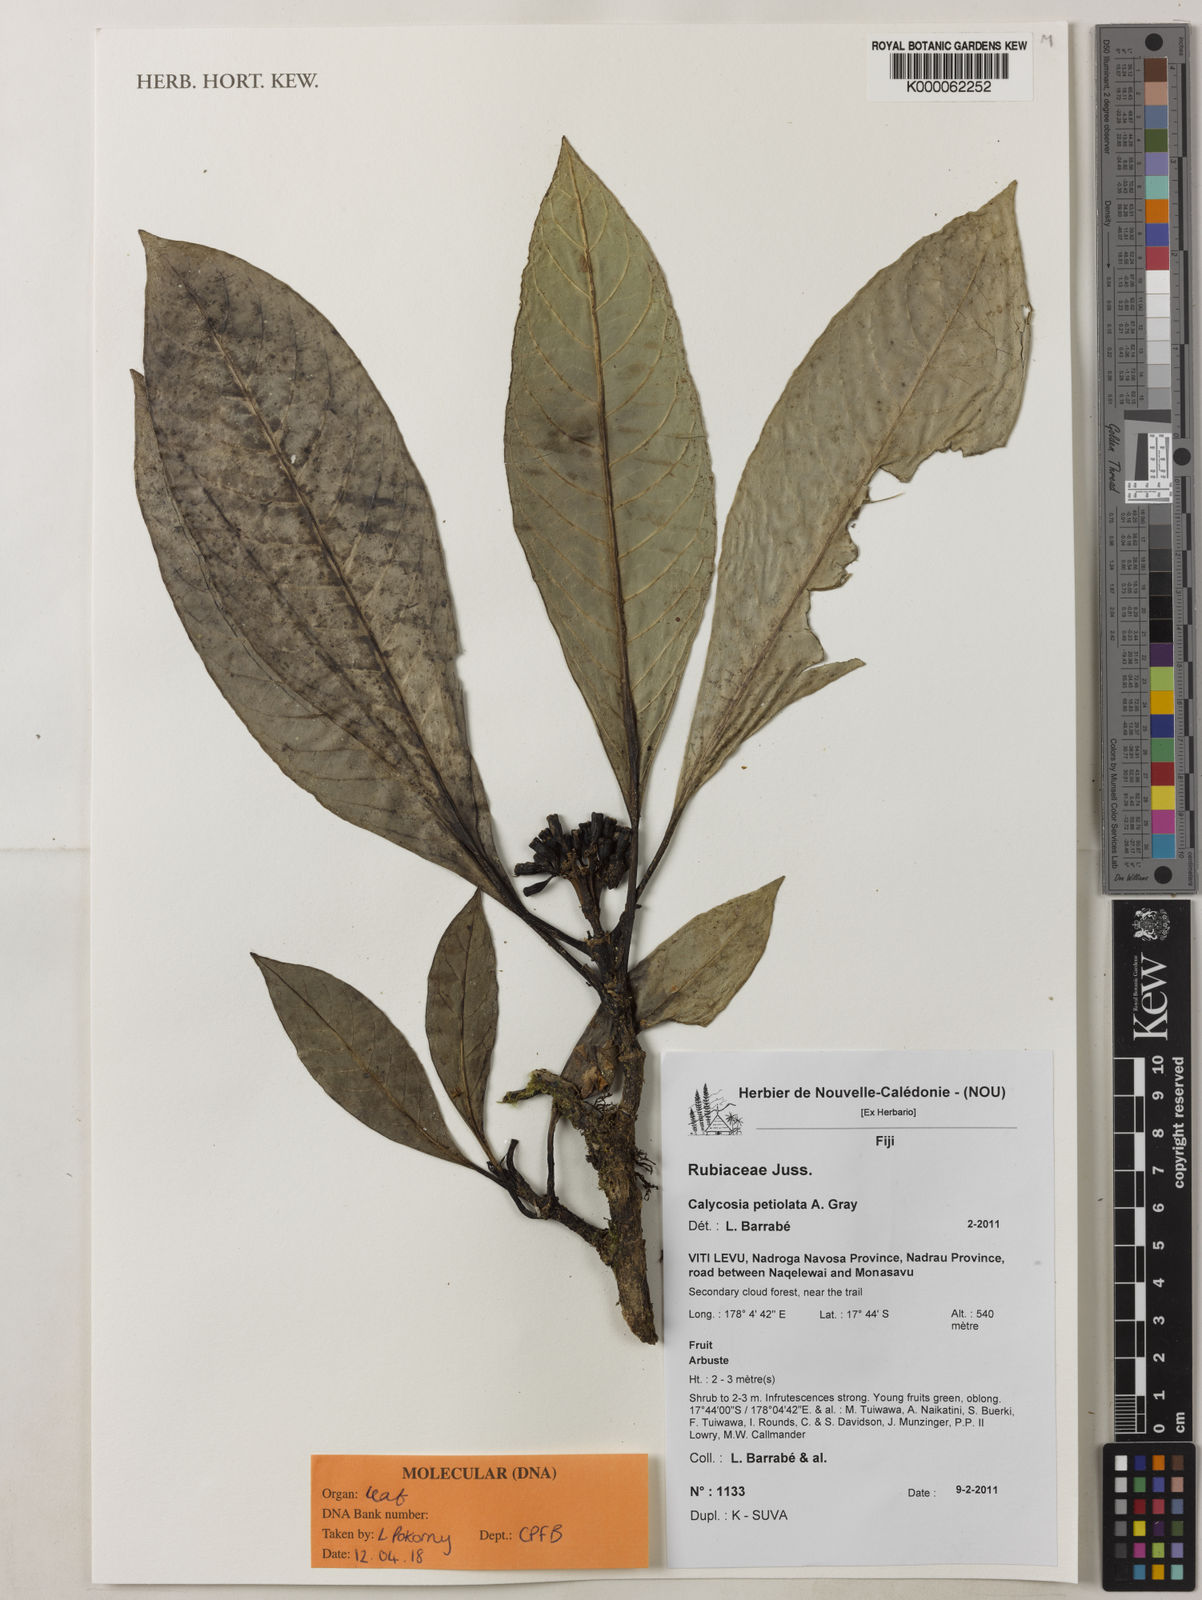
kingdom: Plantae
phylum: Tracheophyta
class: Magnoliopsida
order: Gentianales
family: Rubiaceae
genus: Calycosia
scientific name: Calycosia
